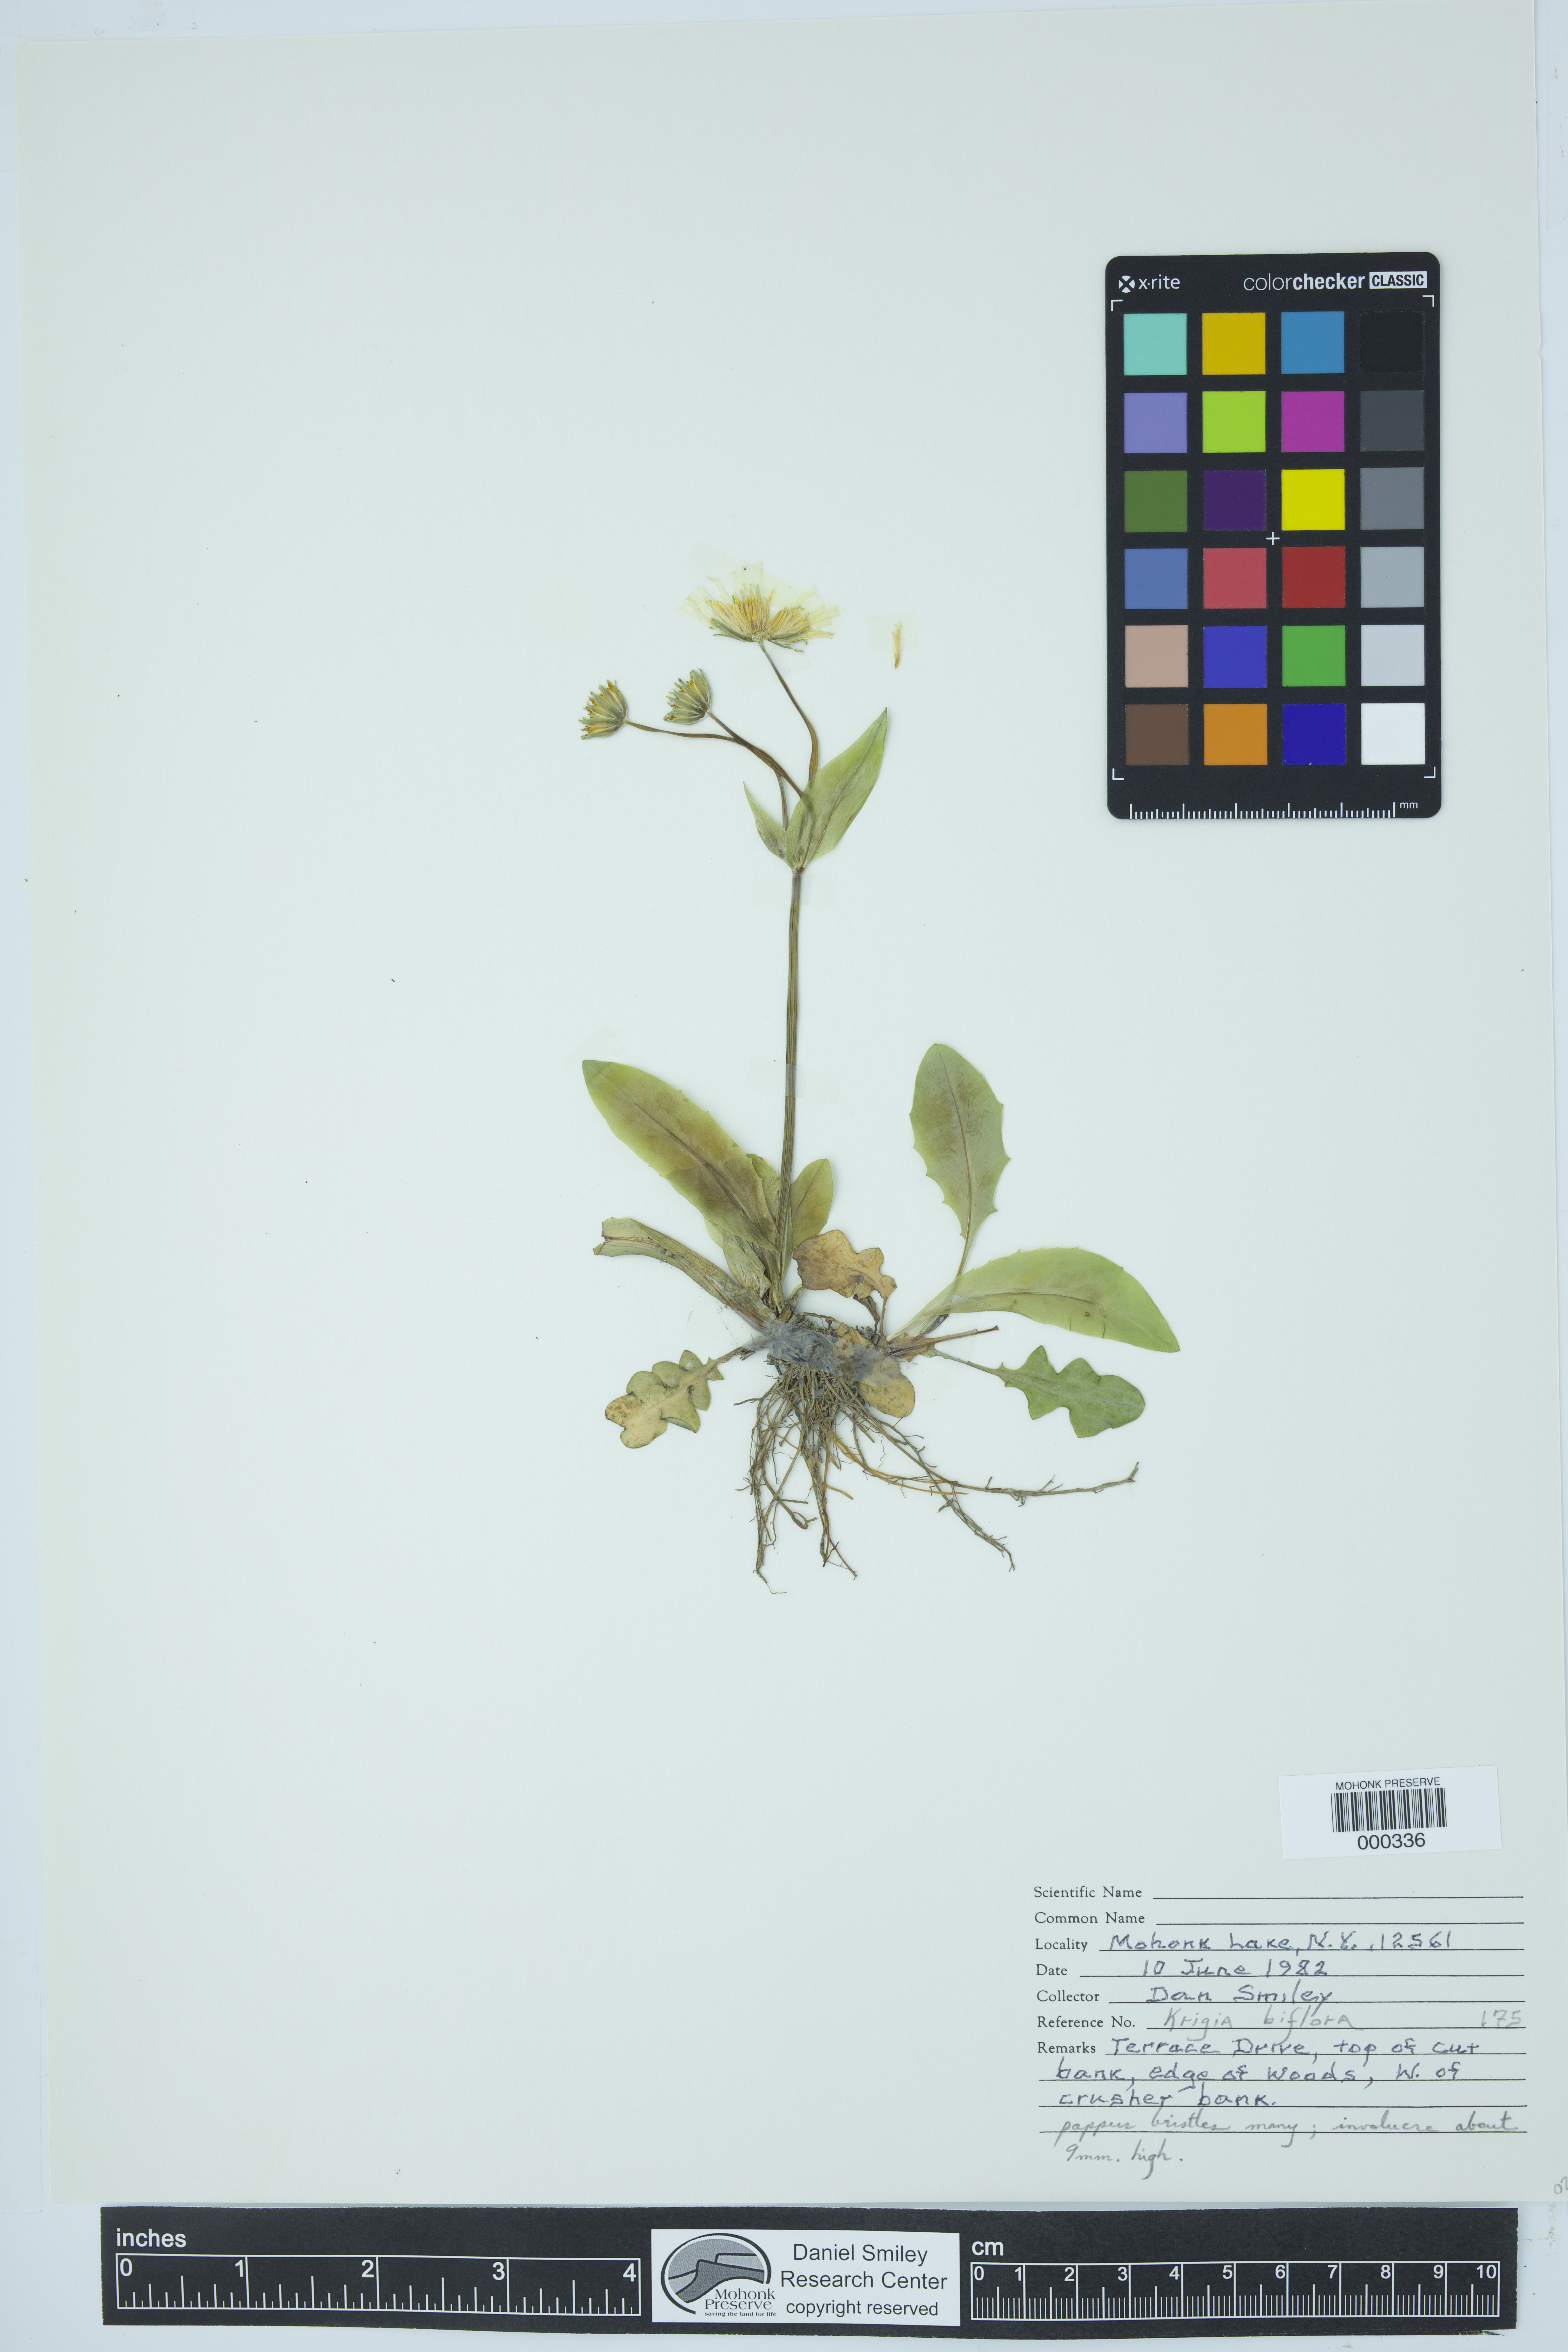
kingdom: Plantae
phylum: Tracheophyta
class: Magnoliopsida
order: Asterales
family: Asteraceae
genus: Krigia
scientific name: Krigia biflora
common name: Orange dwarf-dandelion
